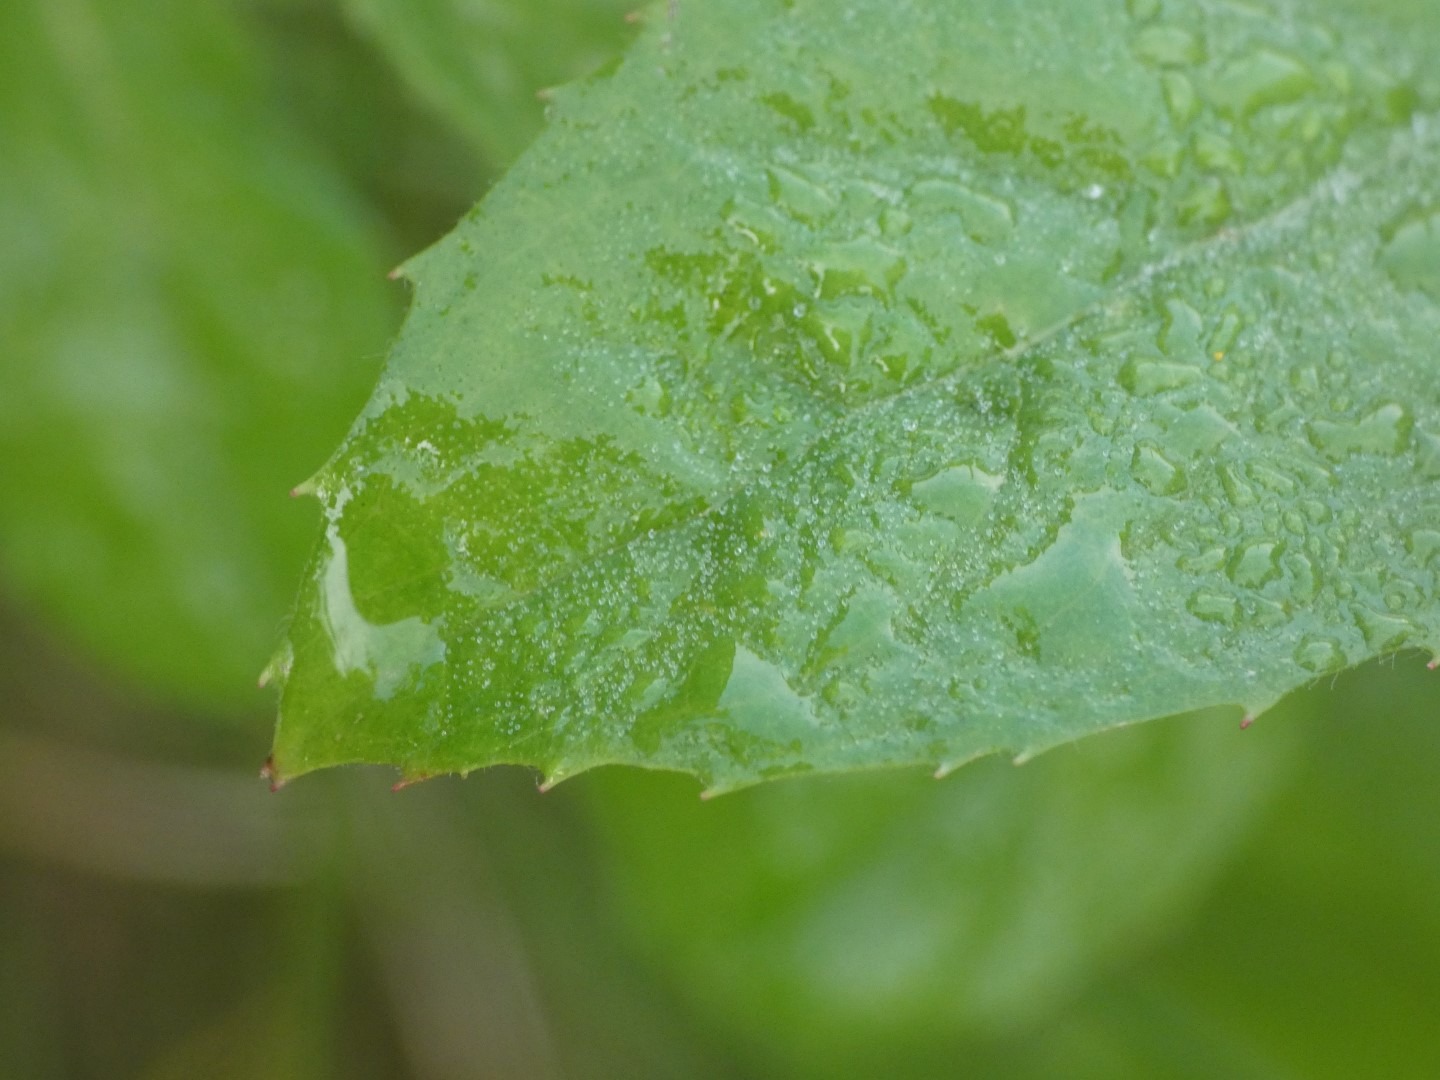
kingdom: Plantae
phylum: Tracheophyta
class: Magnoliopsida
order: Myrtales
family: Onagraceae
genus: Epilobium
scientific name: Epilobium hirsutum
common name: Lådden dueurt
